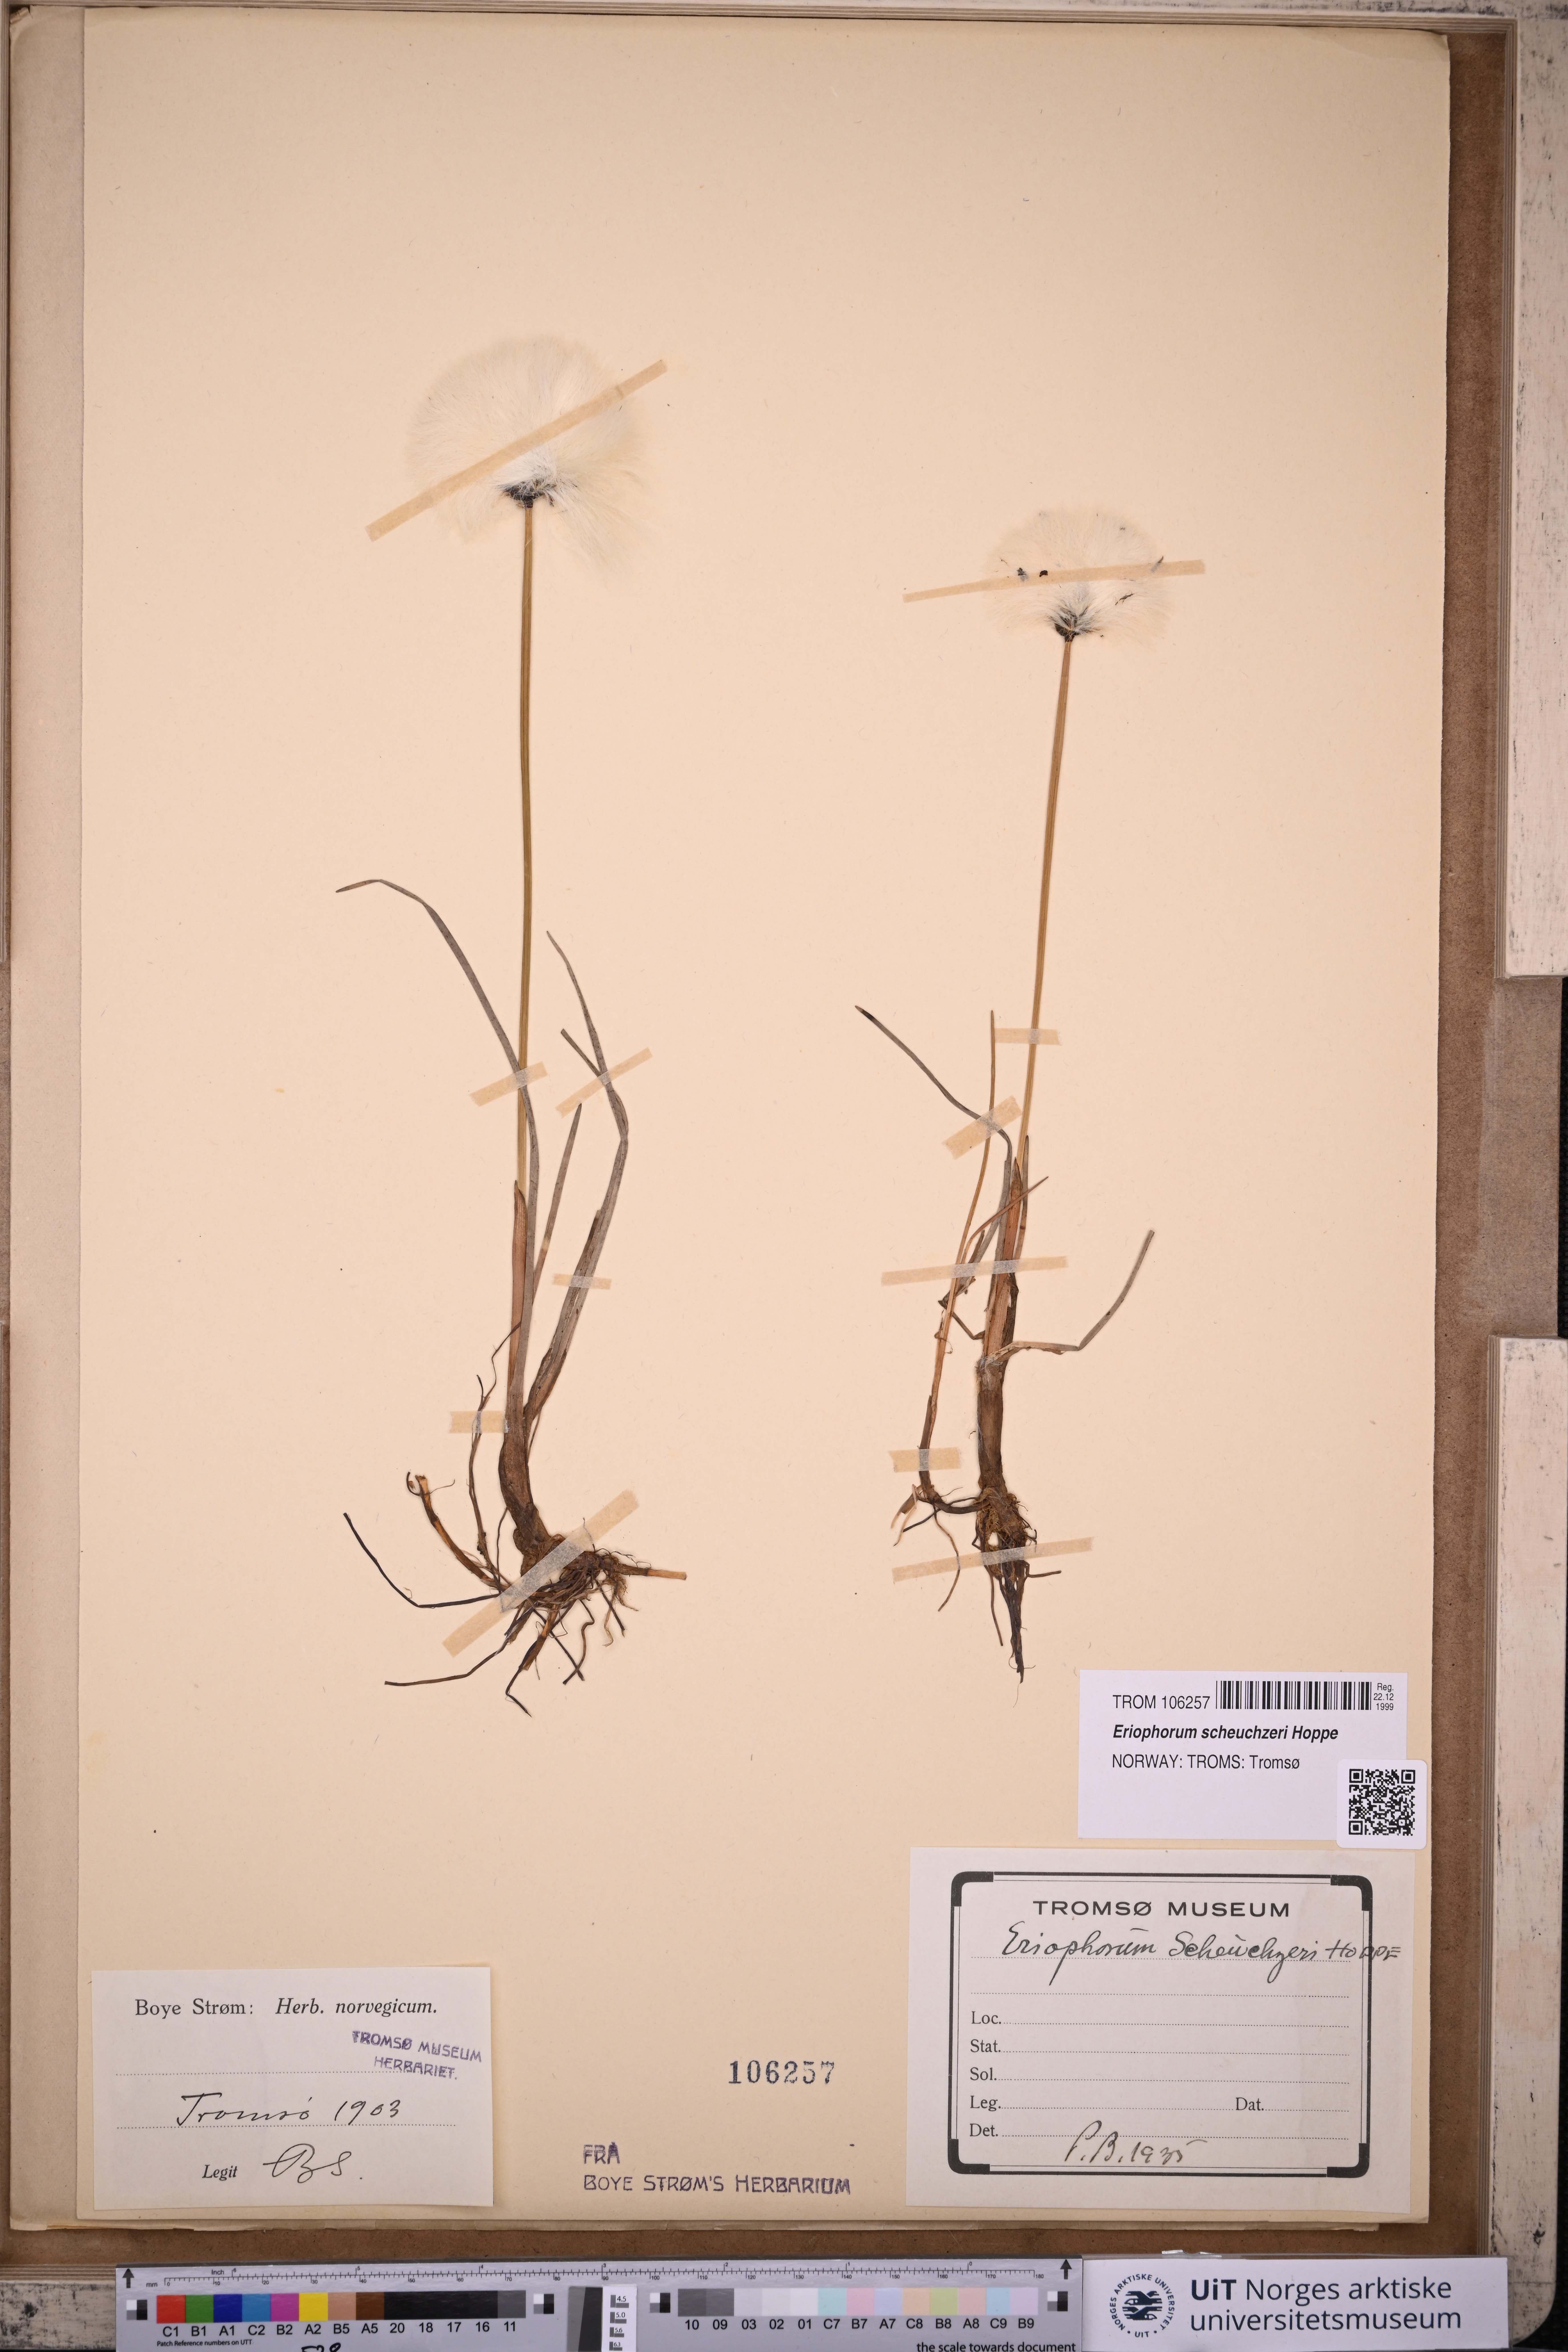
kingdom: Plantae
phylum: Tracheophyta
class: Liliopsida
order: Poales
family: Cyperaceae
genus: Eriophorum
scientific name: Eriophorum scheuchzeri
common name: Scheuchzer's cottongrass
